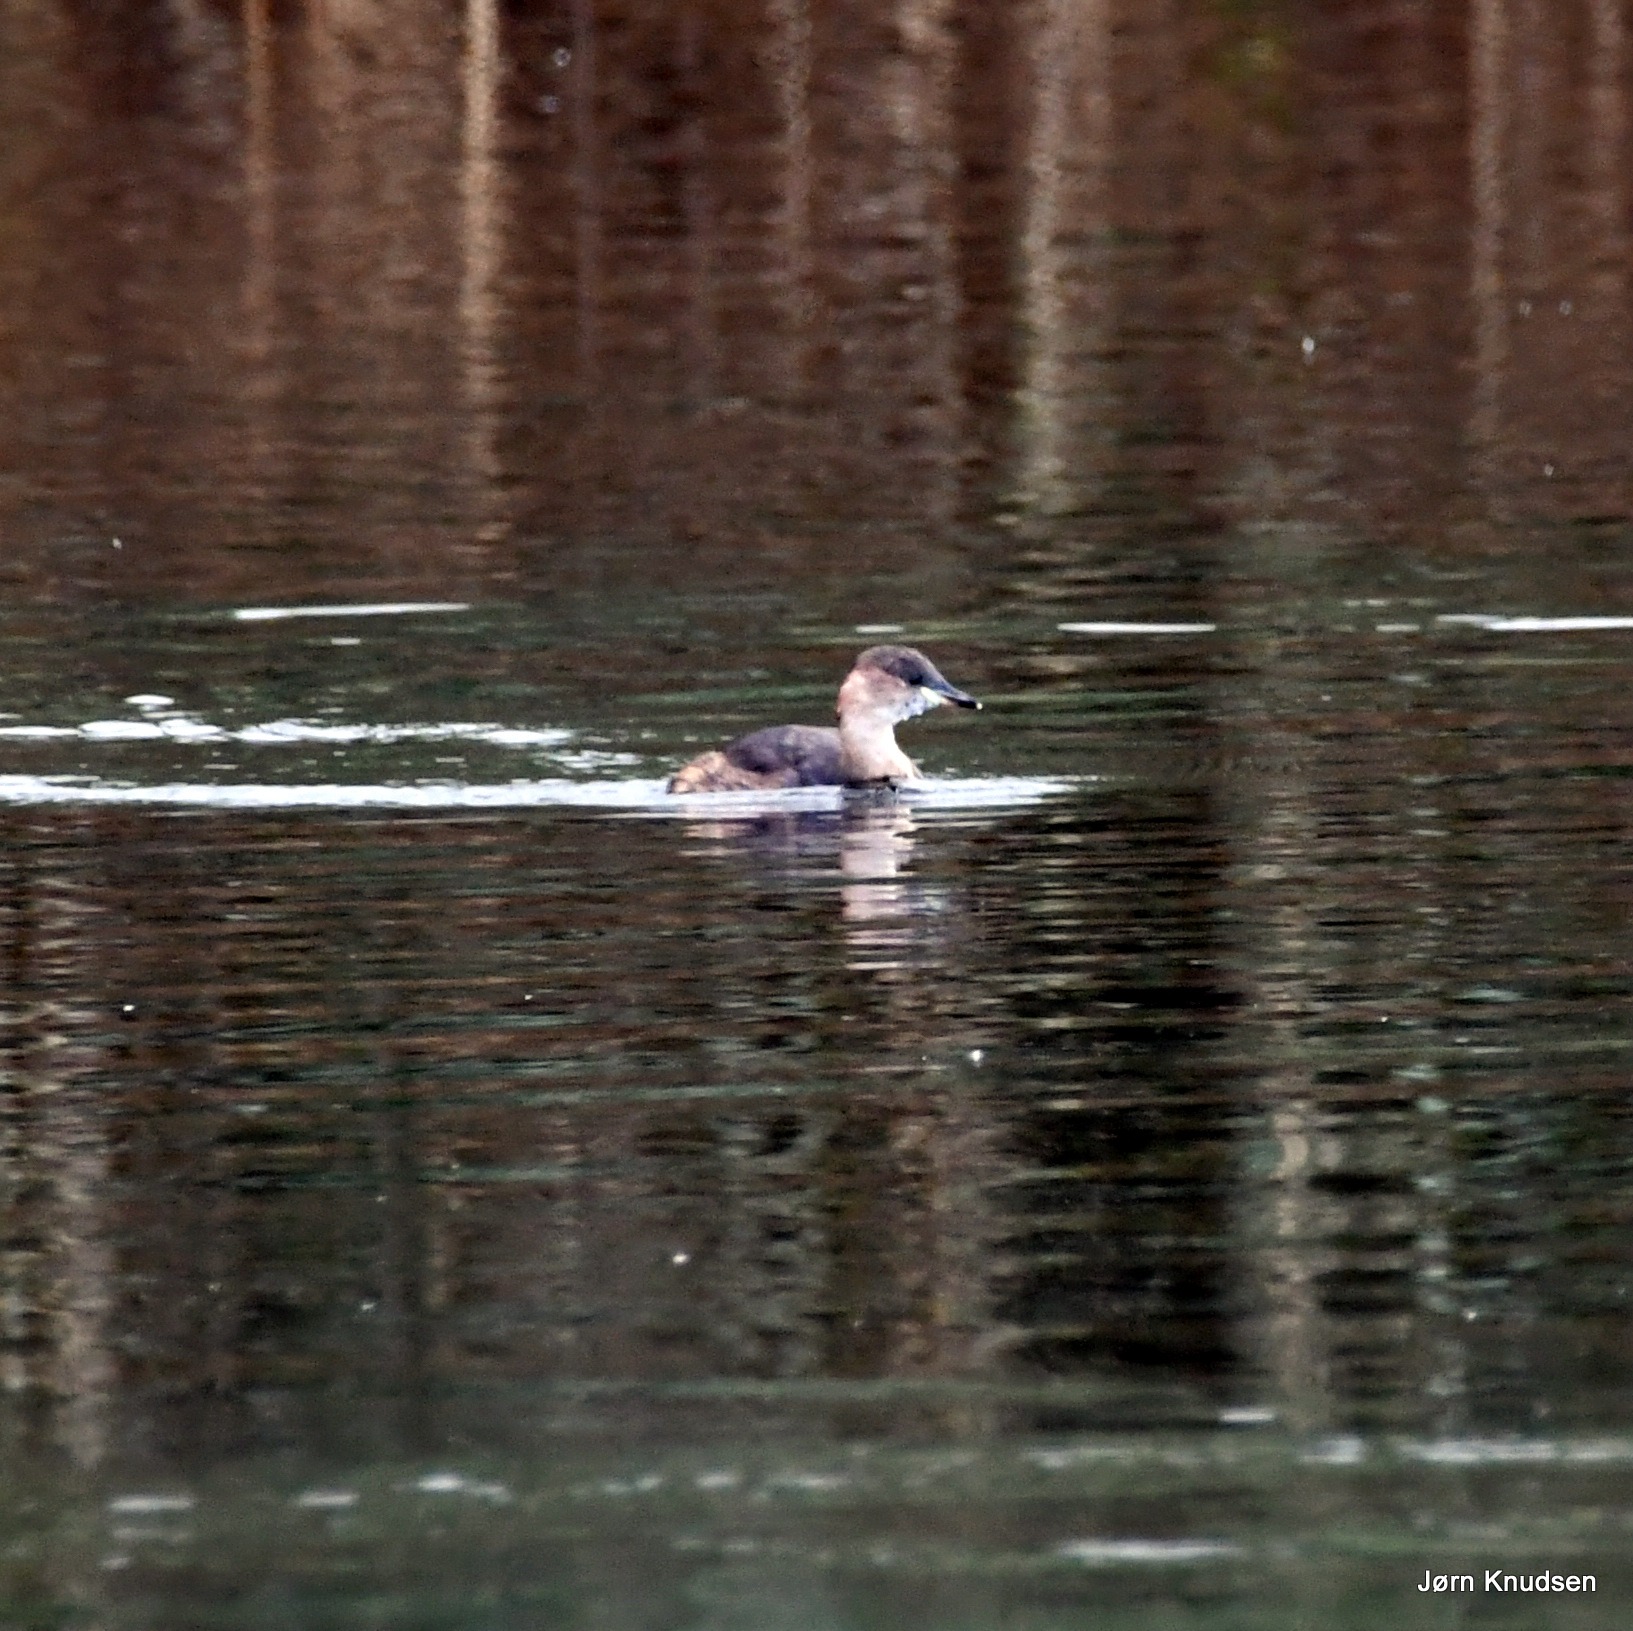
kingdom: Animalia
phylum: Chordata
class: Aves
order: Podicipediformes
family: Podicipedidae
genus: Tachybaptus
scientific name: Tachybaptus ruficollis
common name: Lille lappedykker
